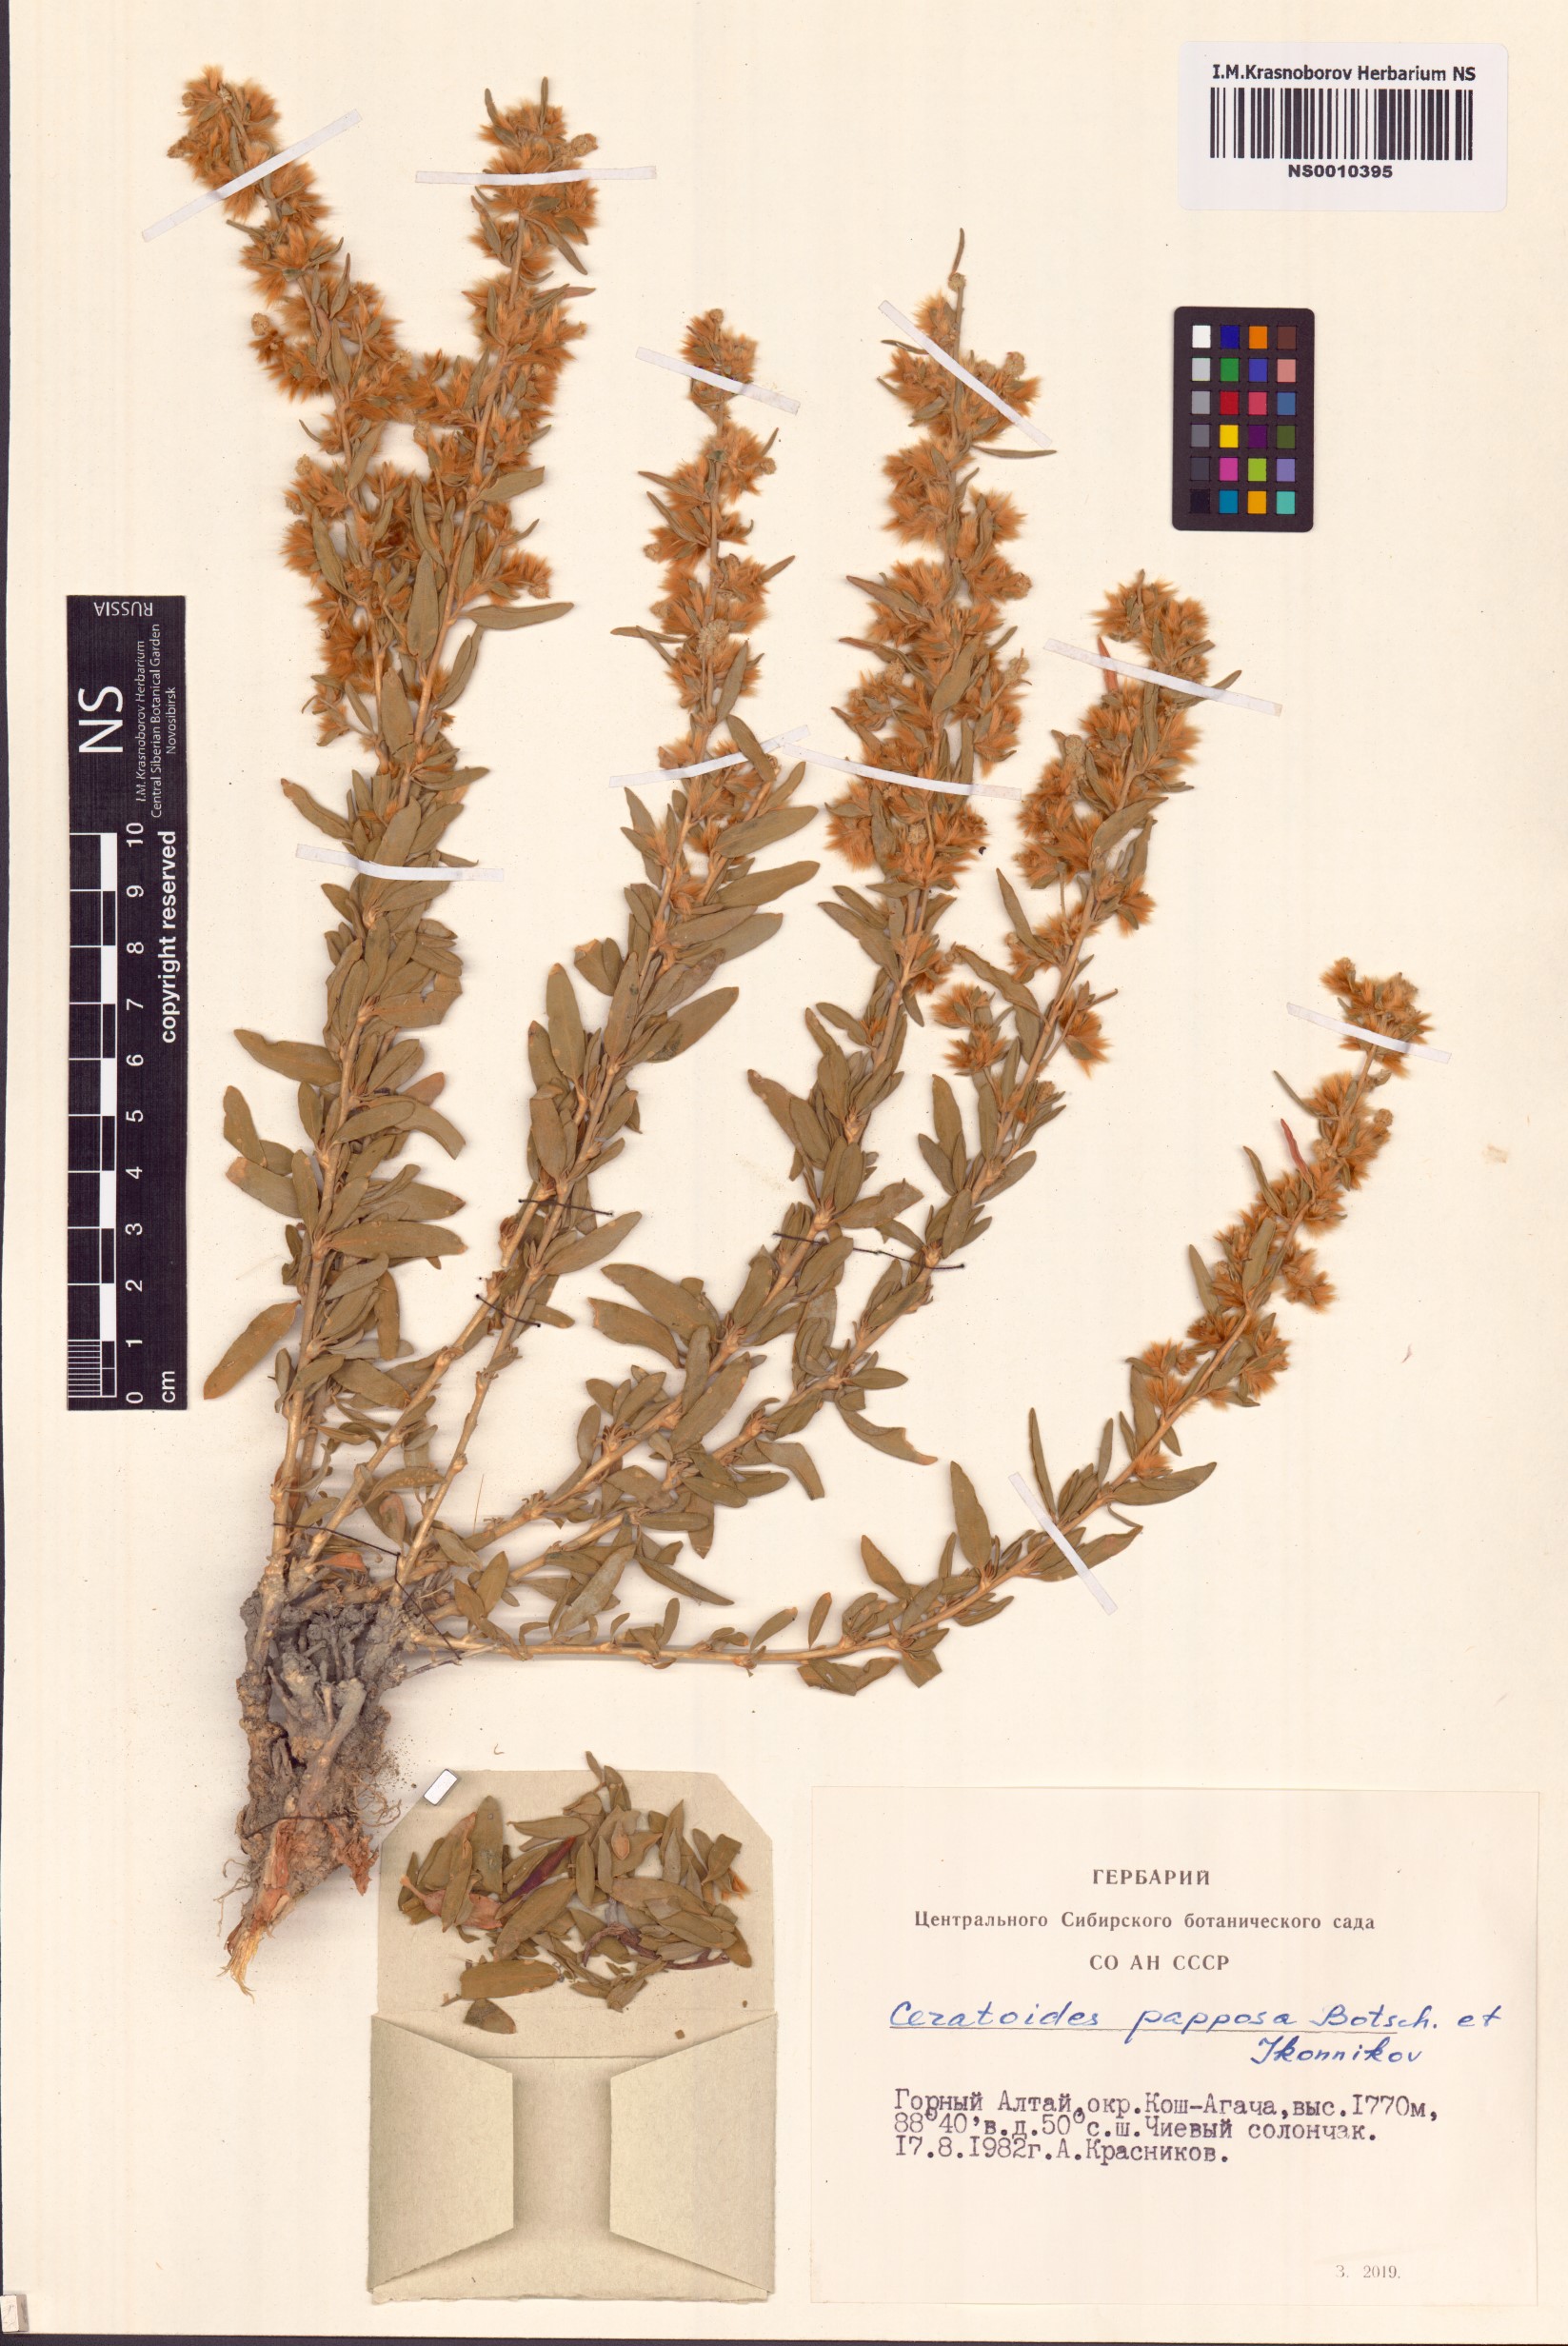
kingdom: Plantae
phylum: Tracheophyta
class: Magnoliopsida
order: Caryophyllales
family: Amaranthaceae
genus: Krascheninnikovia
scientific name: Krascheninnikovia ceratoides
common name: Pamirian winterfat
